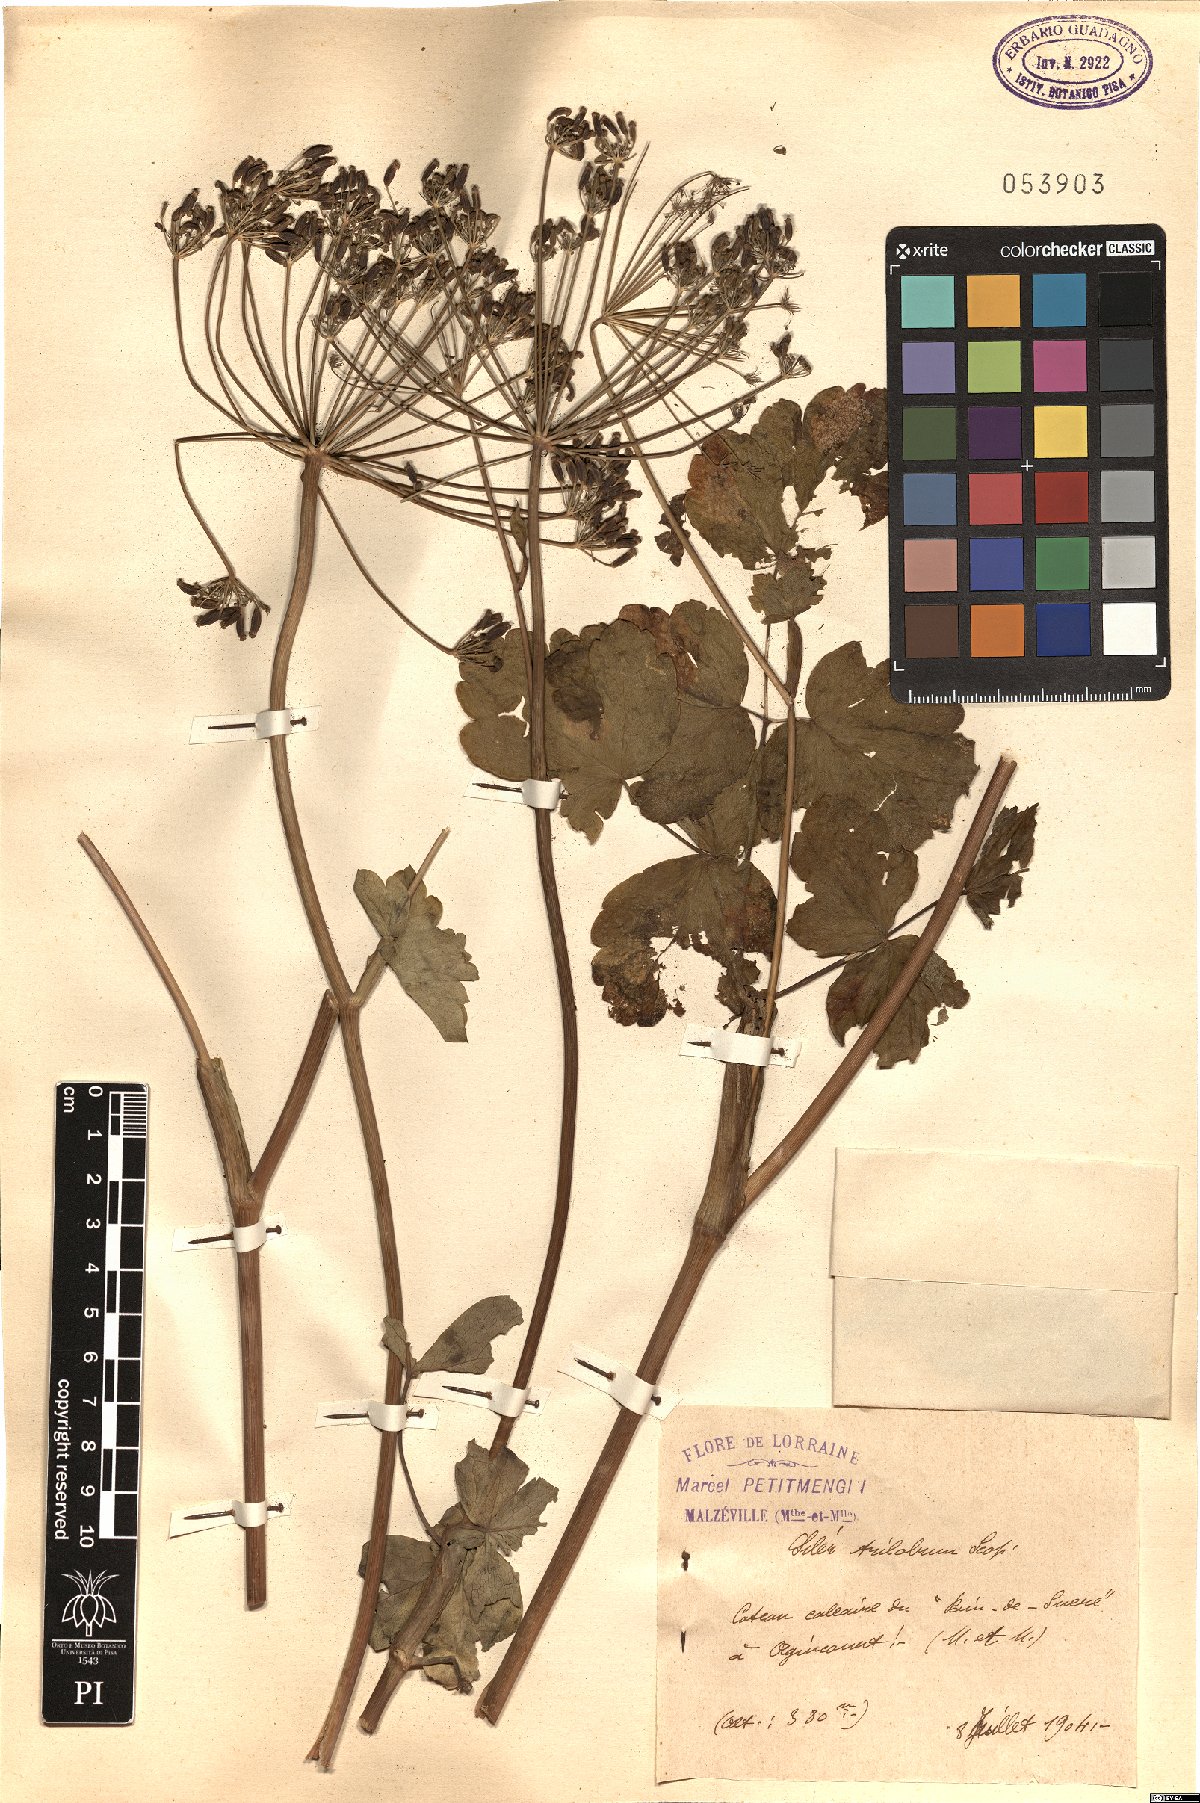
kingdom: Plantae
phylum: Tracheophyta
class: Magnoliopsida
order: Apiales
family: Apiaceae
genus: Laser
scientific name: Laser trilobum
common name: Laser
